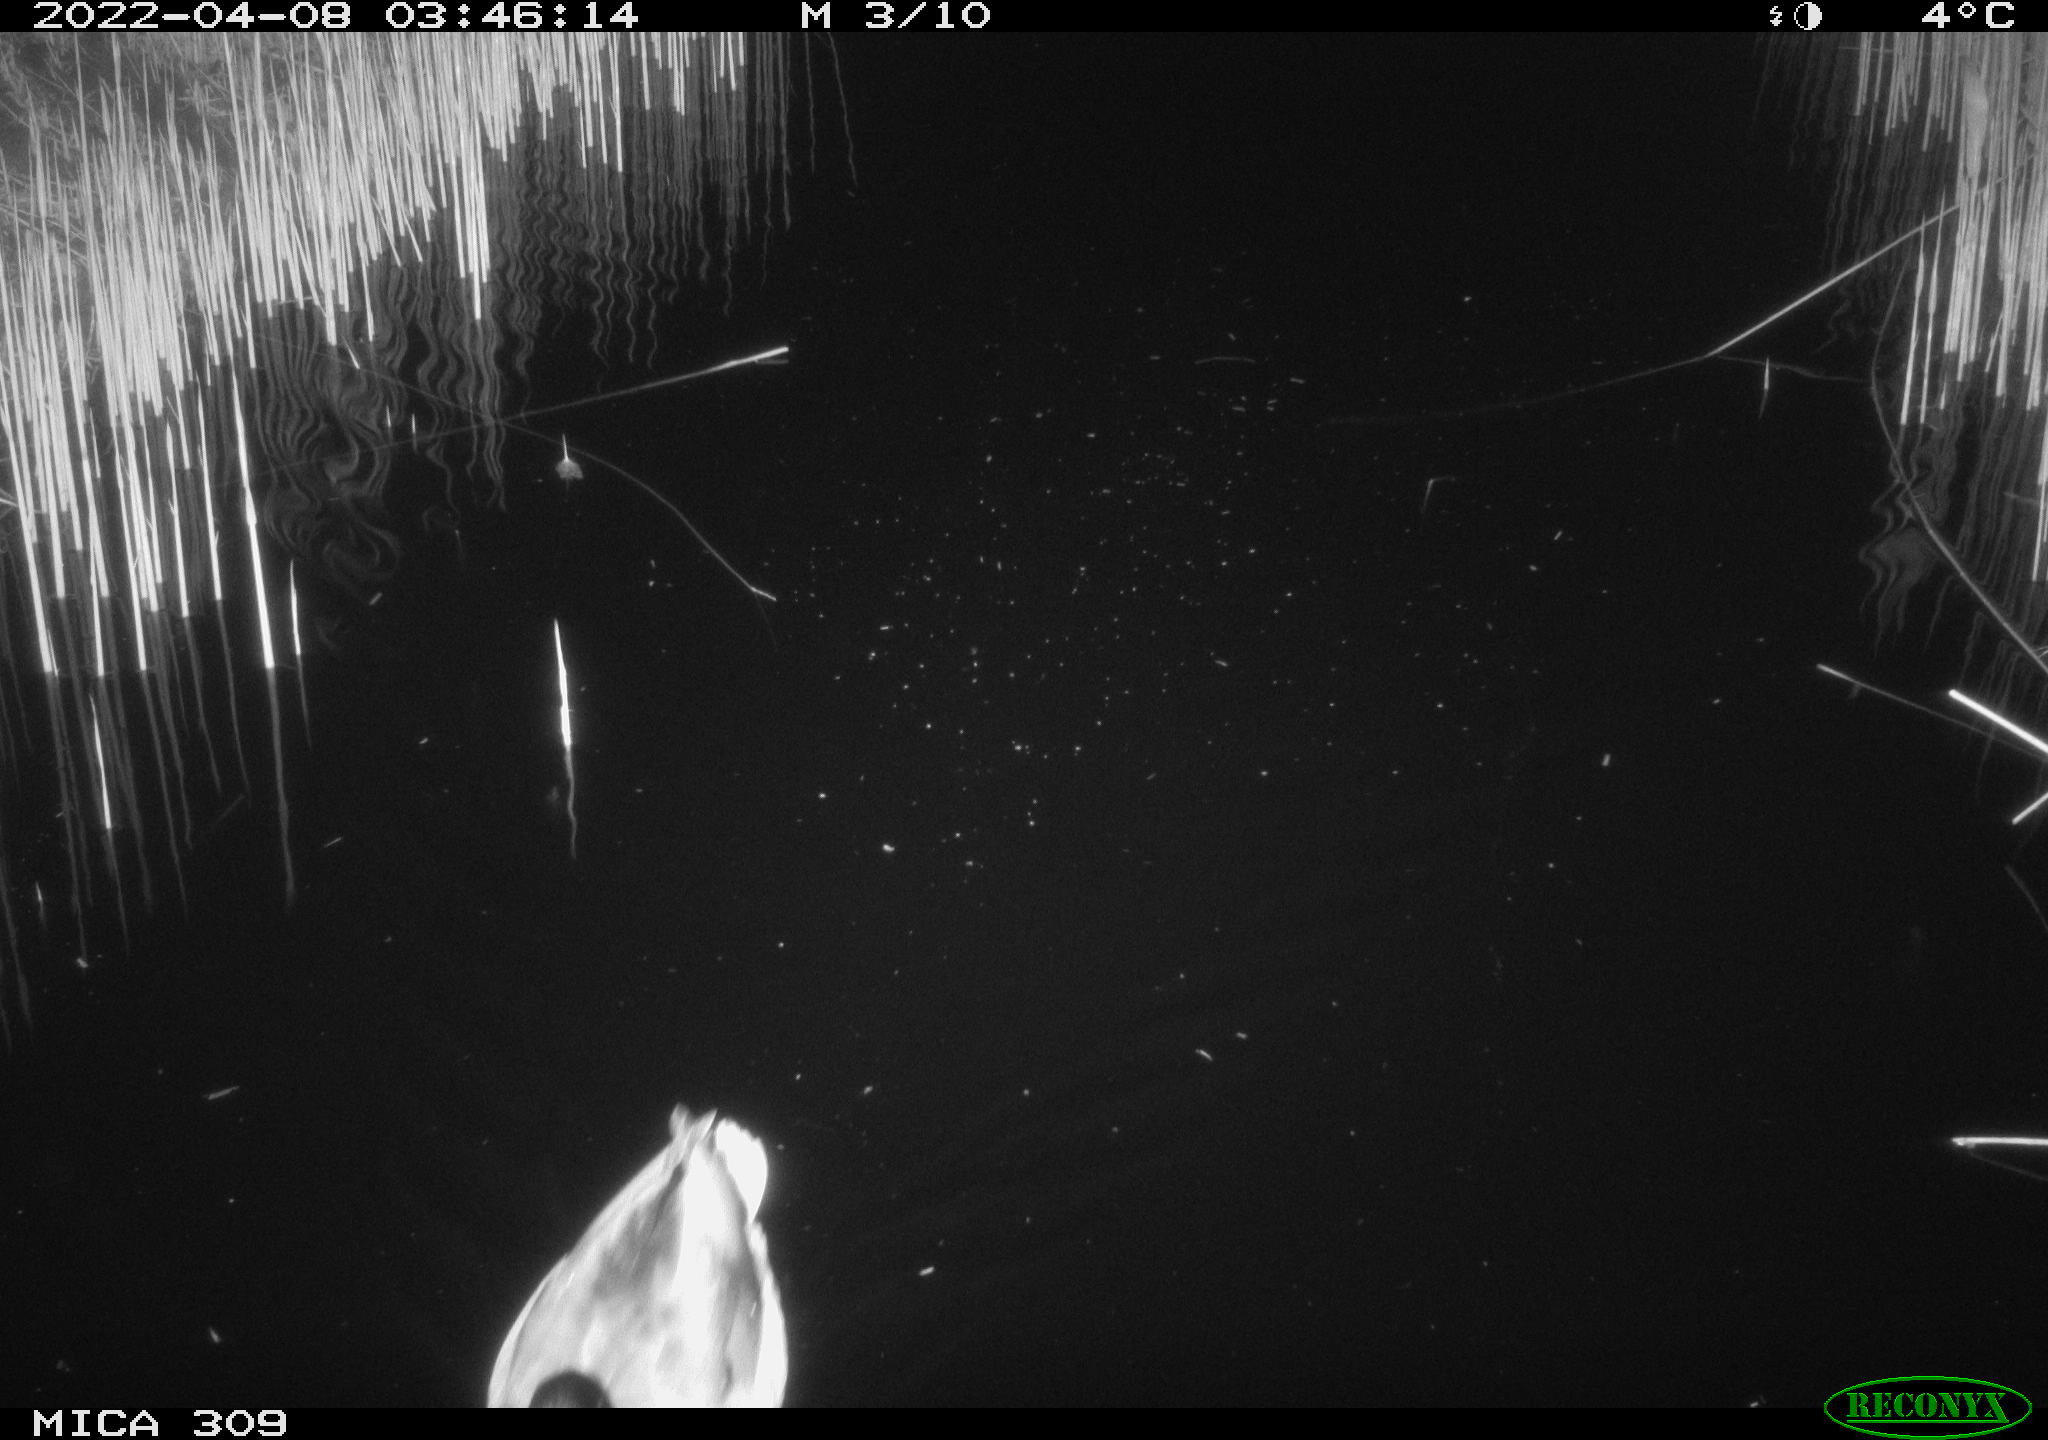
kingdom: Animalia
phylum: Chordata
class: Aves
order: Anseriformes
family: Anatidae
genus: Anas
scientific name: Anas platyrhynchos
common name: Mallard
